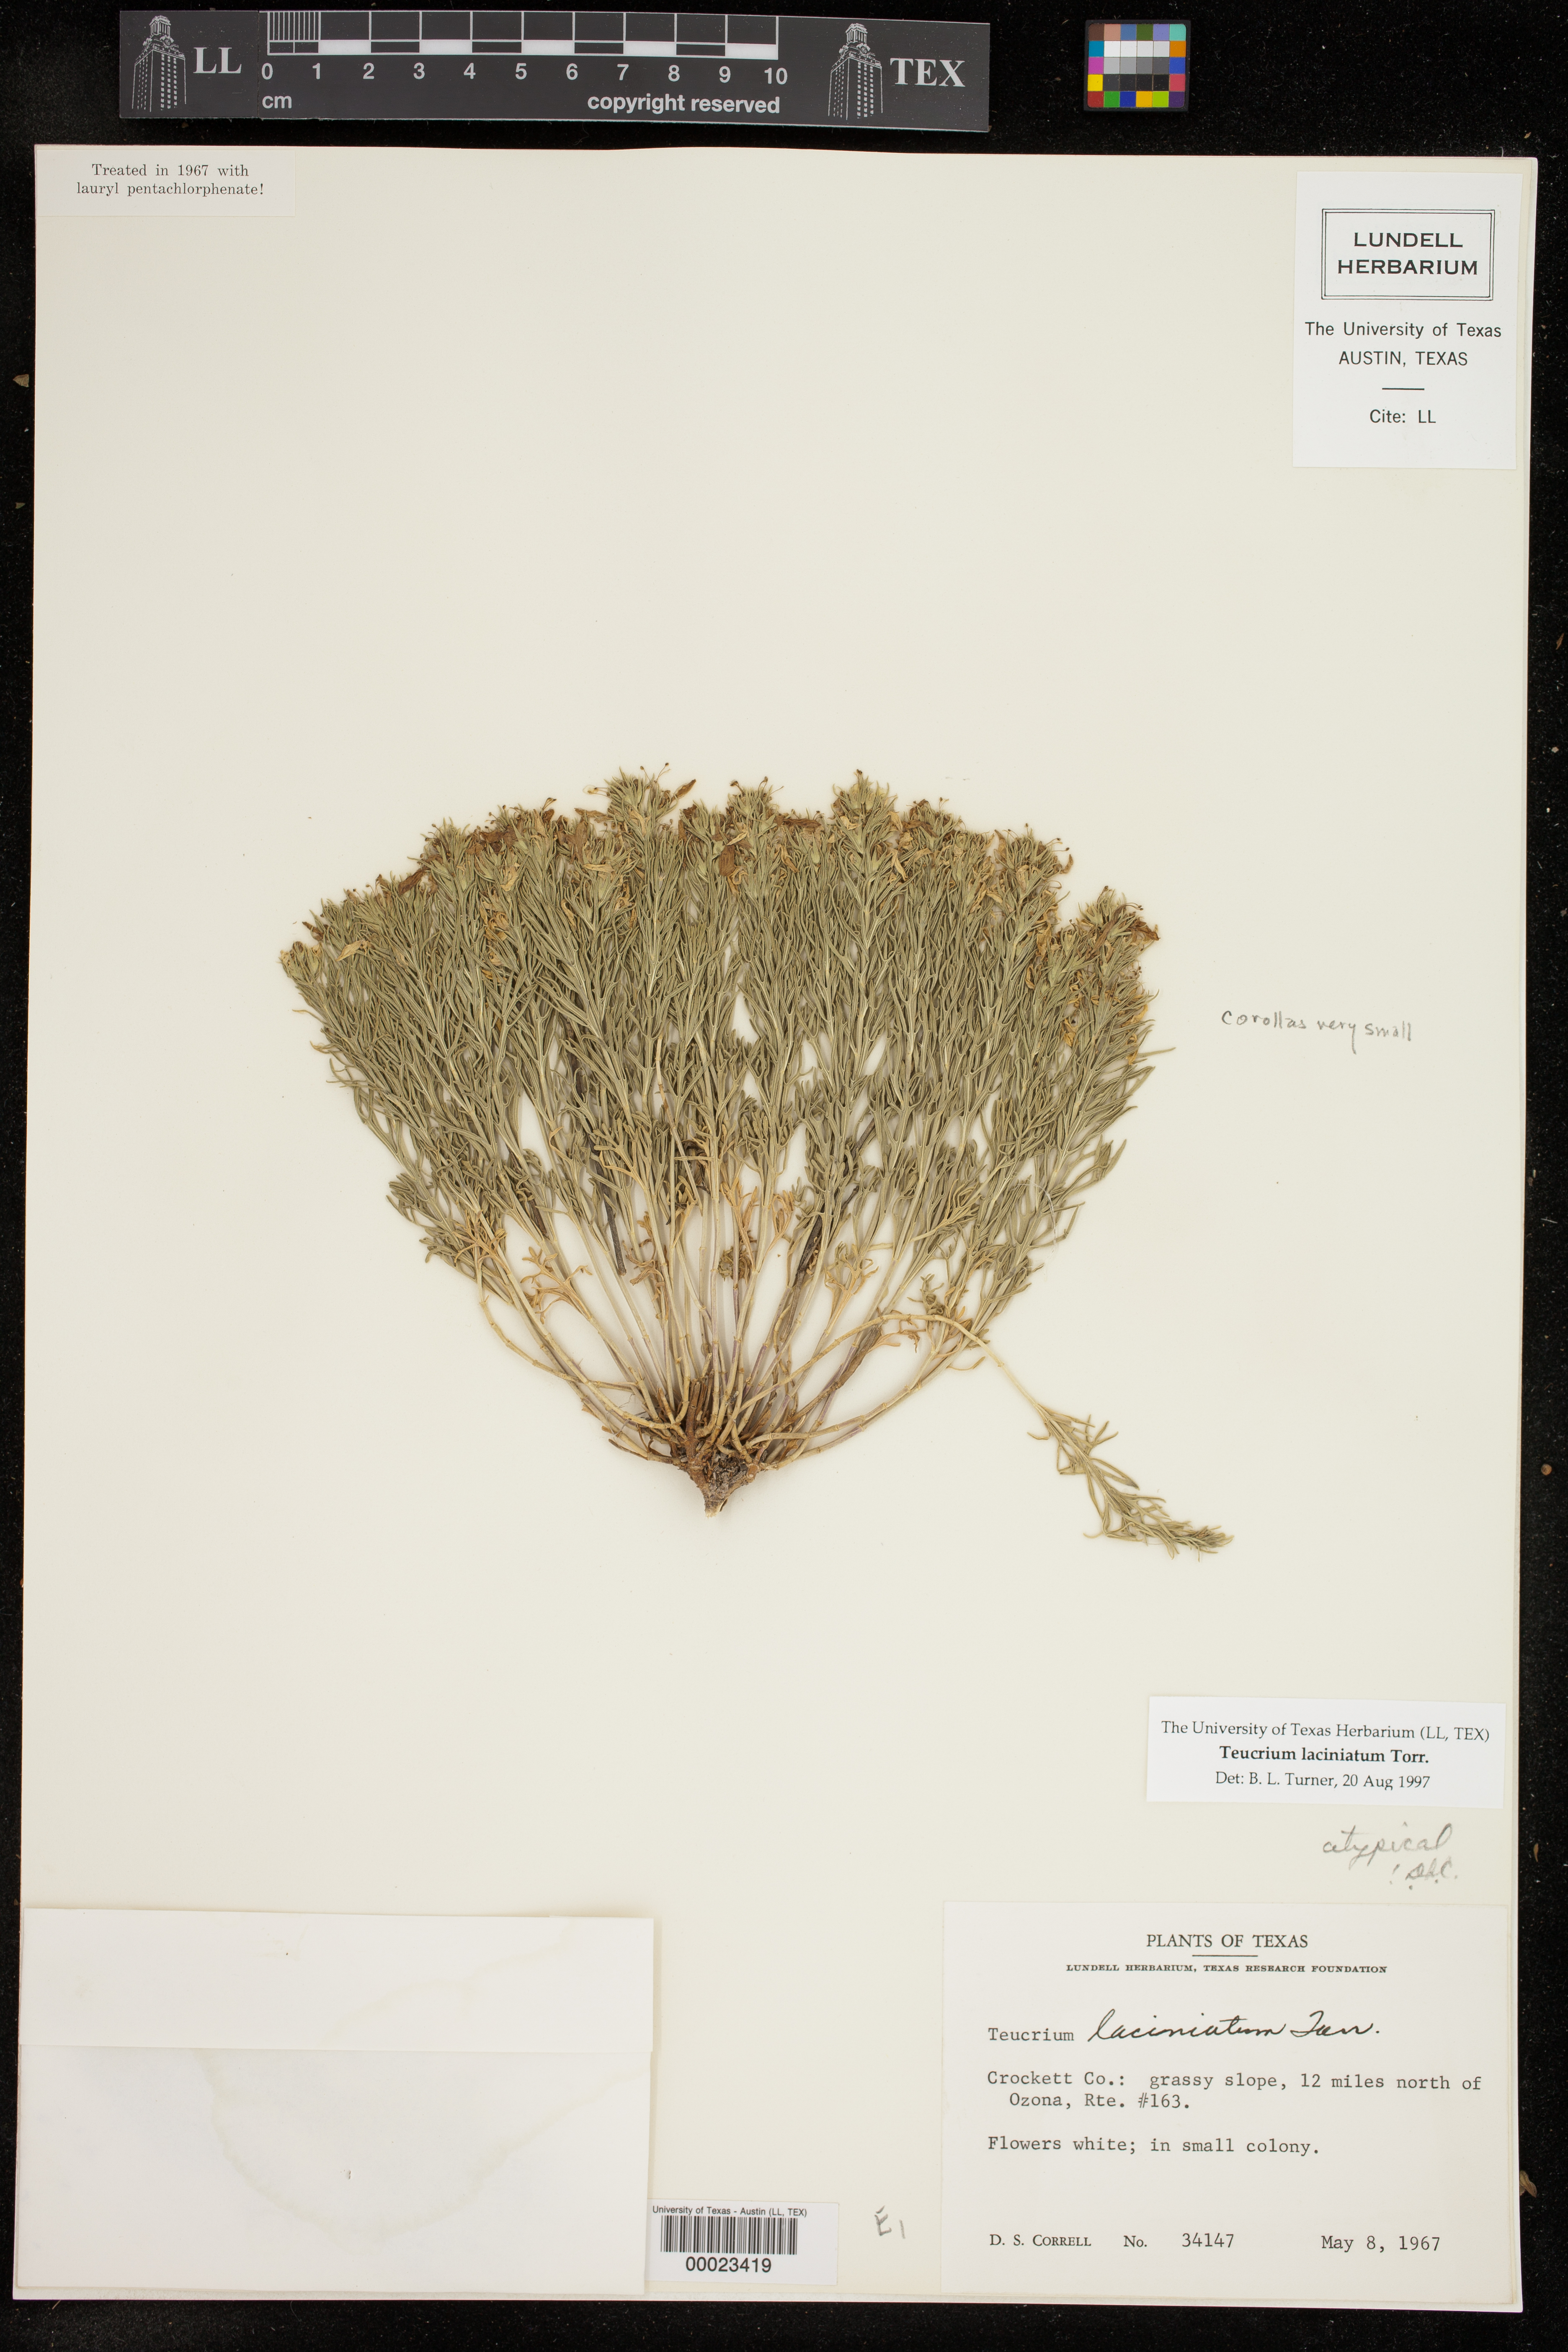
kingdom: Plantae
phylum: Tracheophyta
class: Magnoliopsida
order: Lamiales
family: Lamiaceae
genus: Teucrium
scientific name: Teucrium laciniatum
